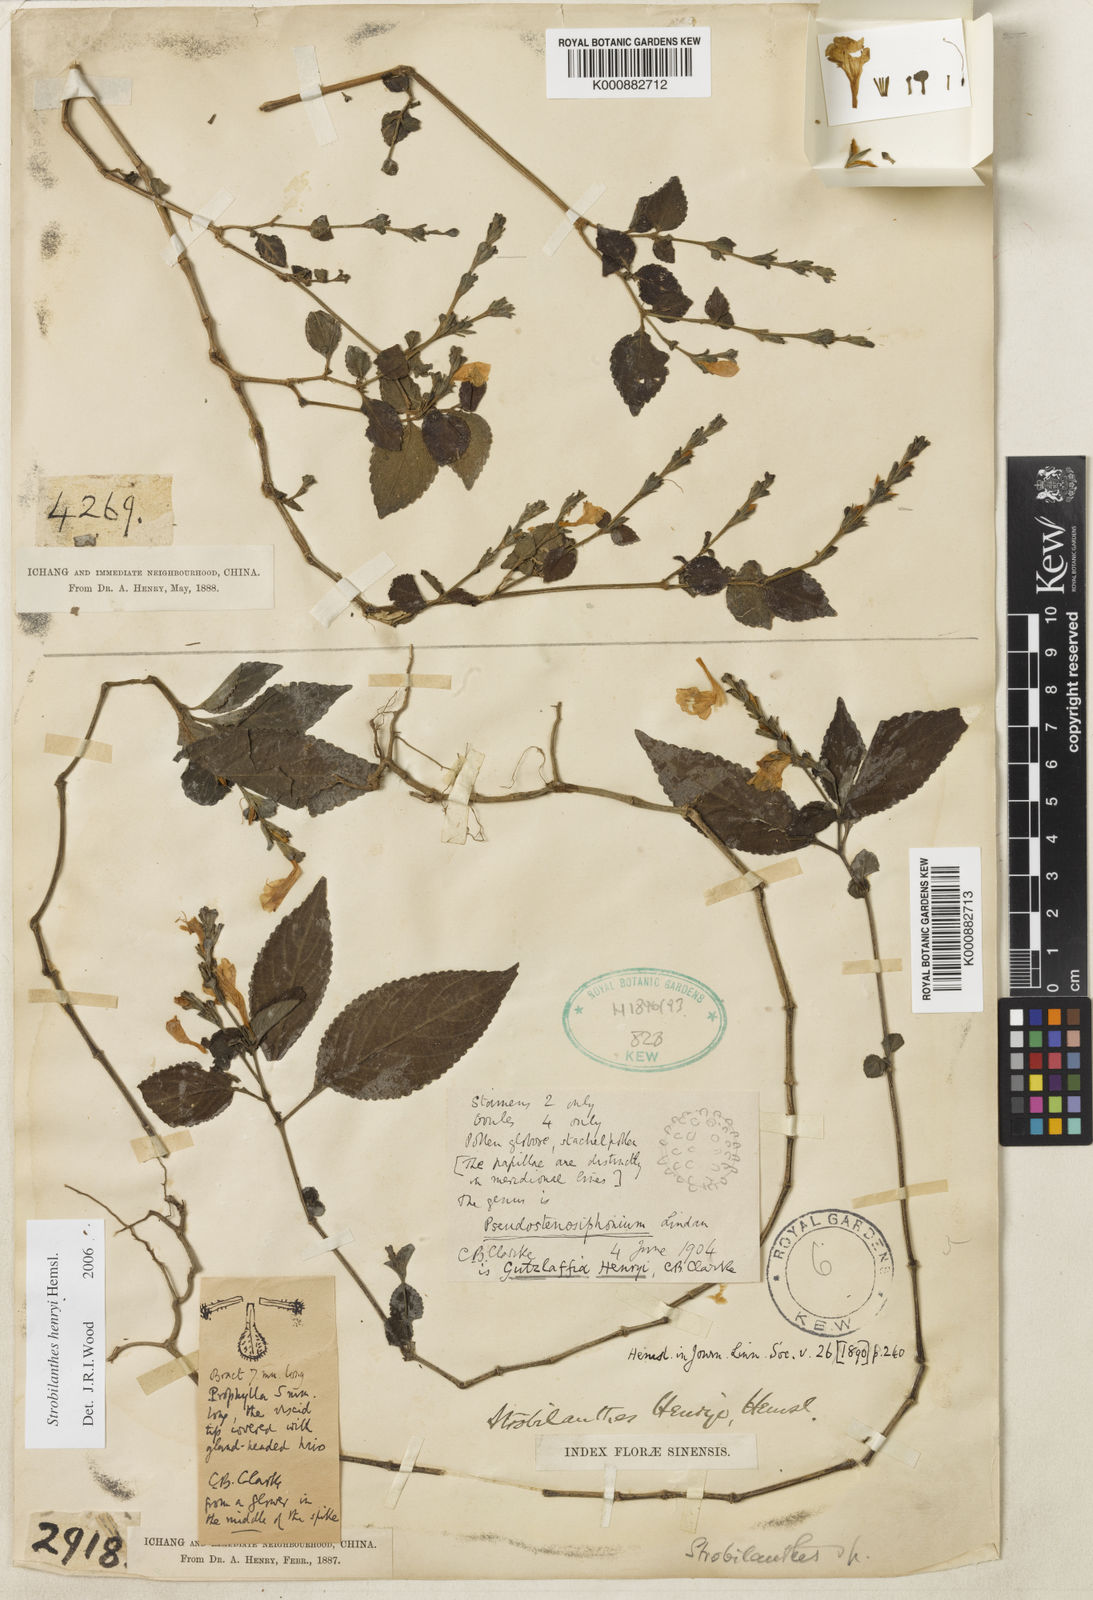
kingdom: Plantae
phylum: Tracheophyta
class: Magnoliopsida
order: Lamiales
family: Acanthaceae
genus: Strobilanthes
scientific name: Strobilanthes henryi
